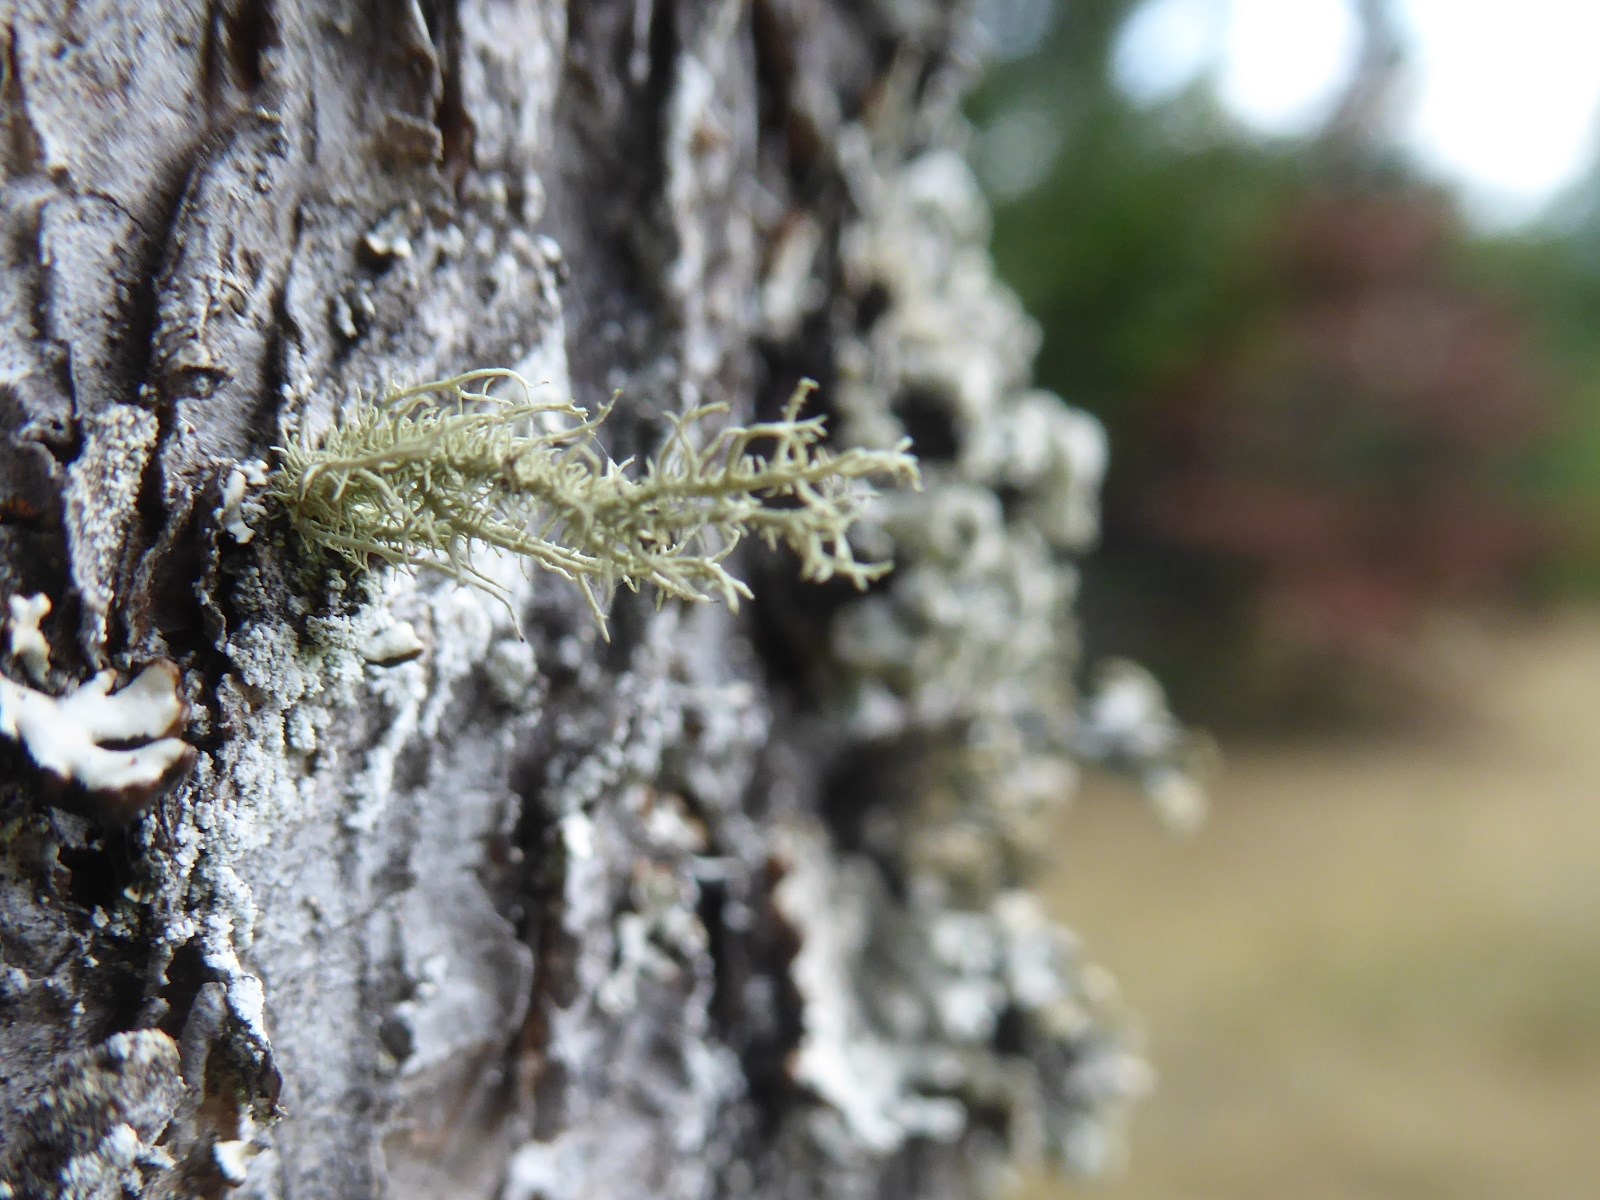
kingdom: Fungi
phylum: Ascomycota
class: Lecanoromycetes
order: Lecanorales
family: Parmeliaceae
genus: Usnea
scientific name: Usnea hirta
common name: liden skæglav
